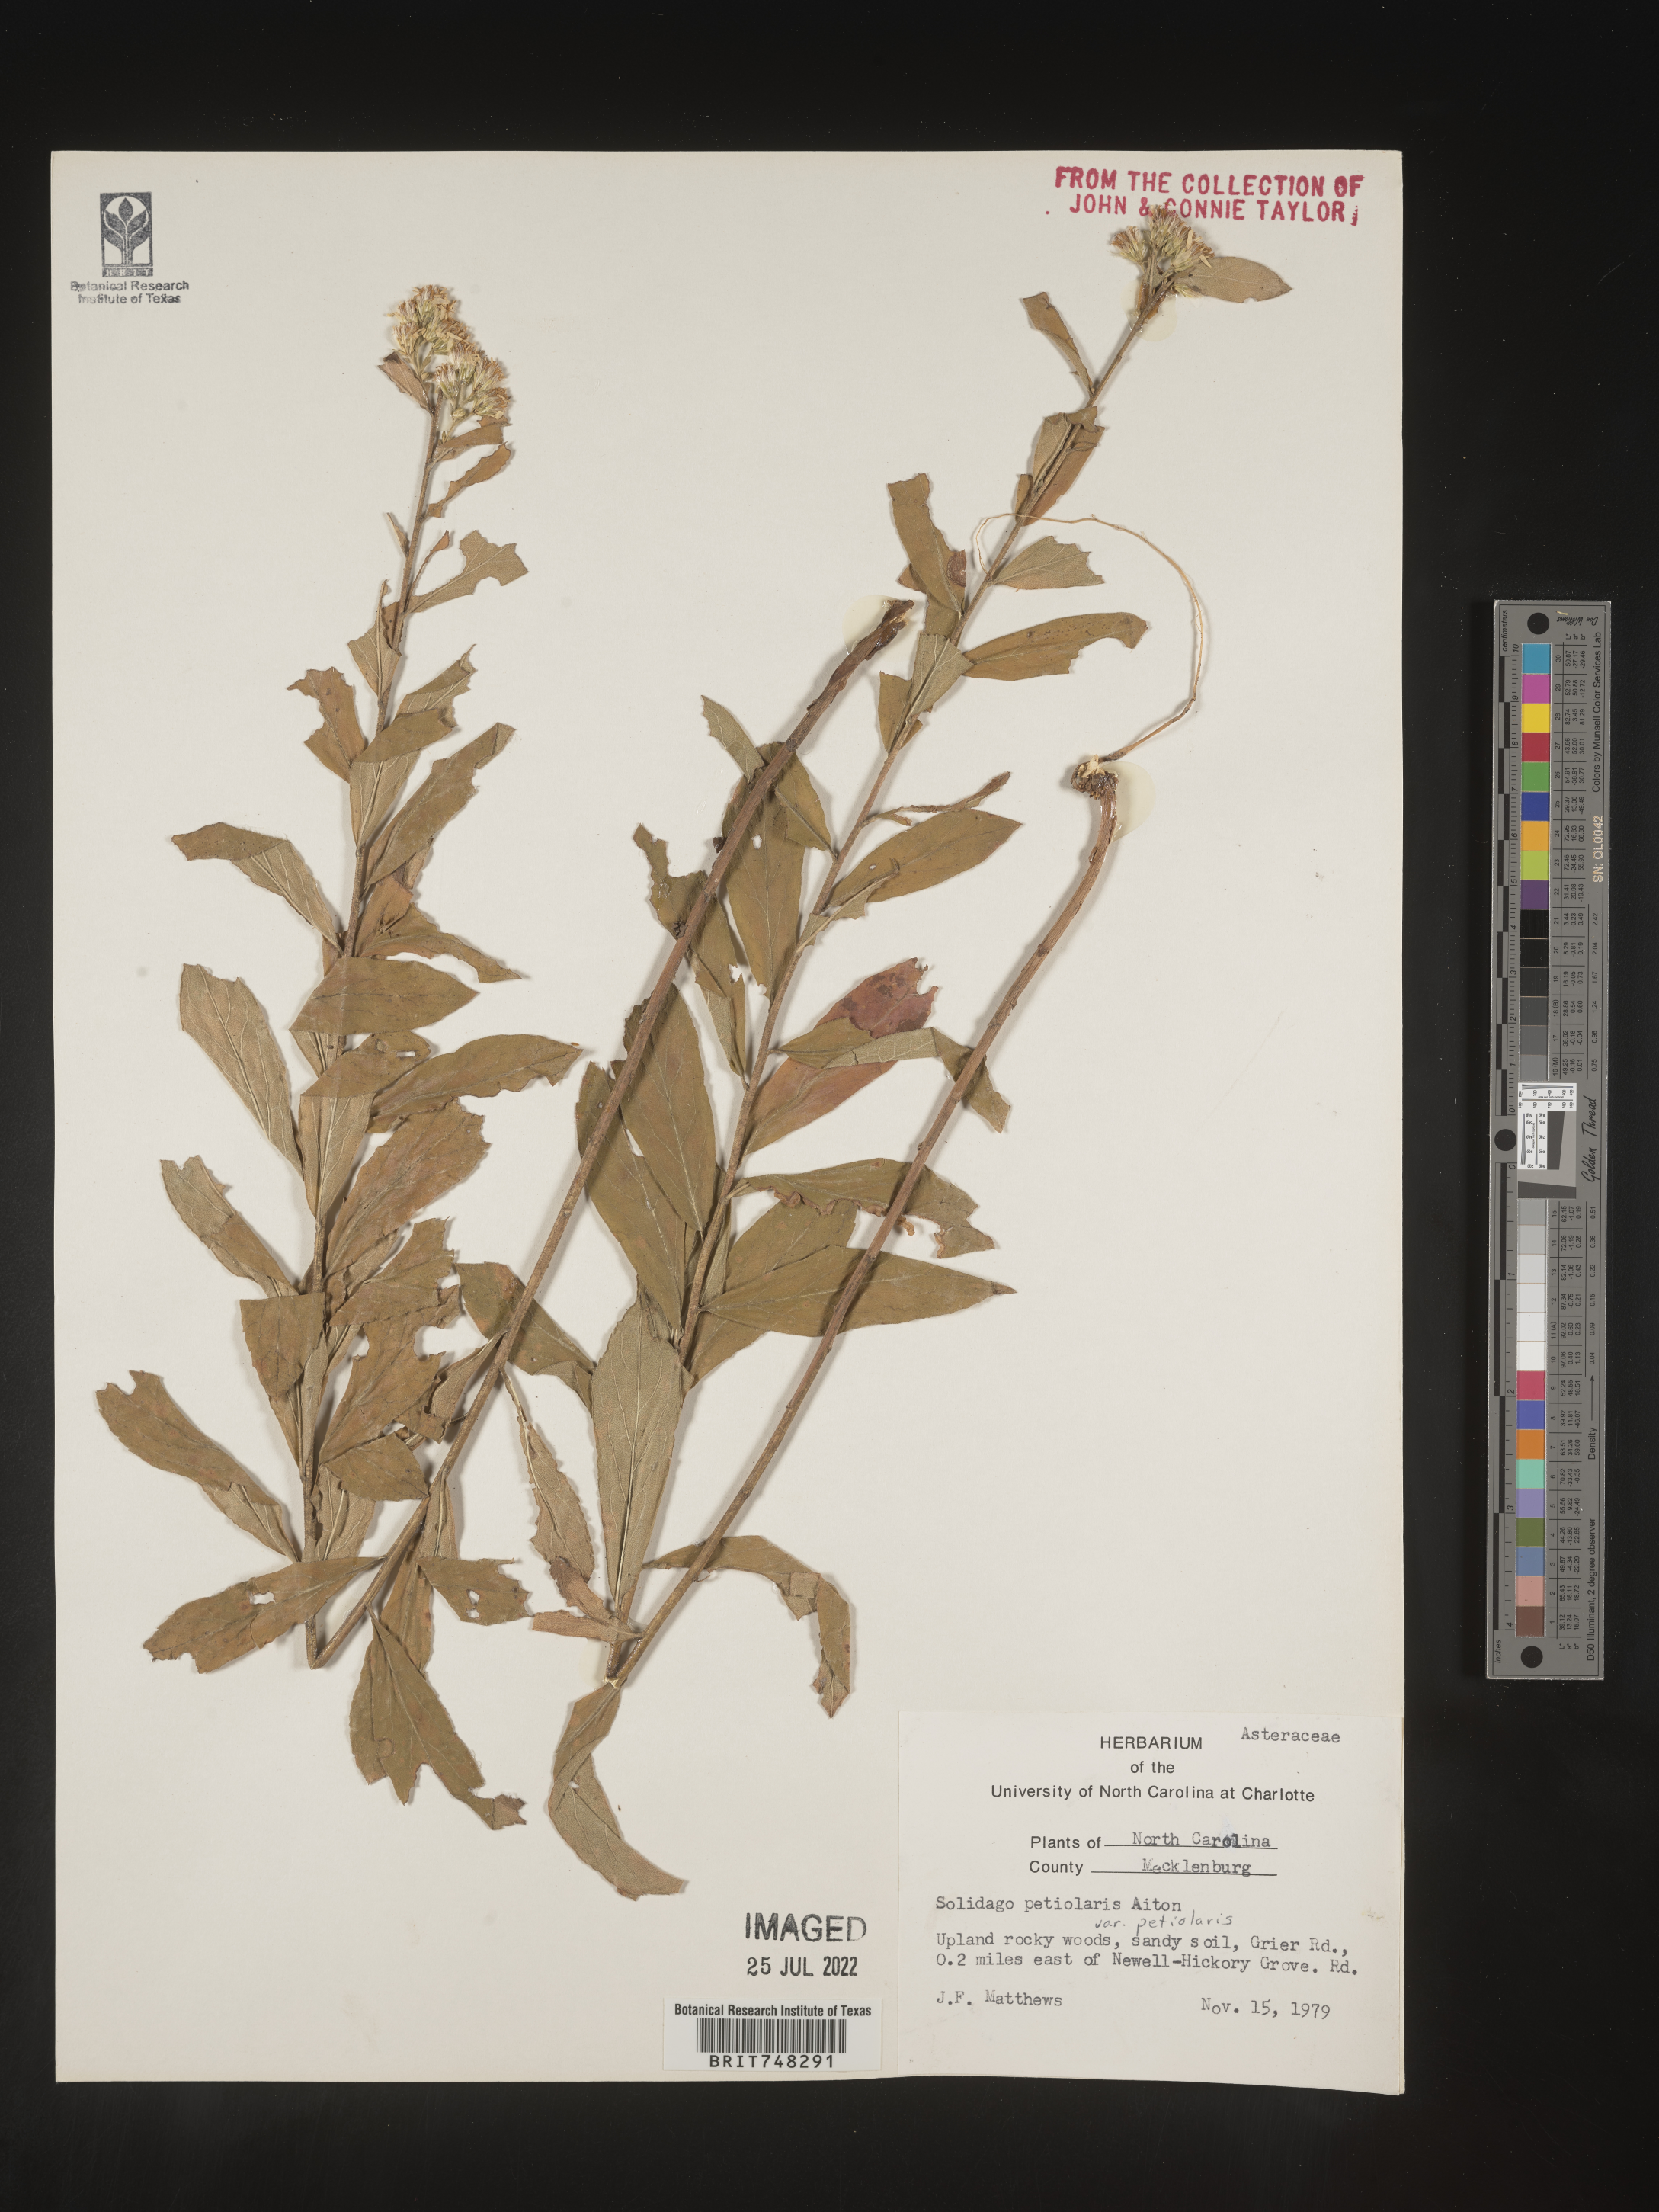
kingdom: Plantae
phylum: Tracheophyta
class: Magnoliopsida
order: Asterales
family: Asteraceae
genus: Solidago
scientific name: Solidago pinetorum
